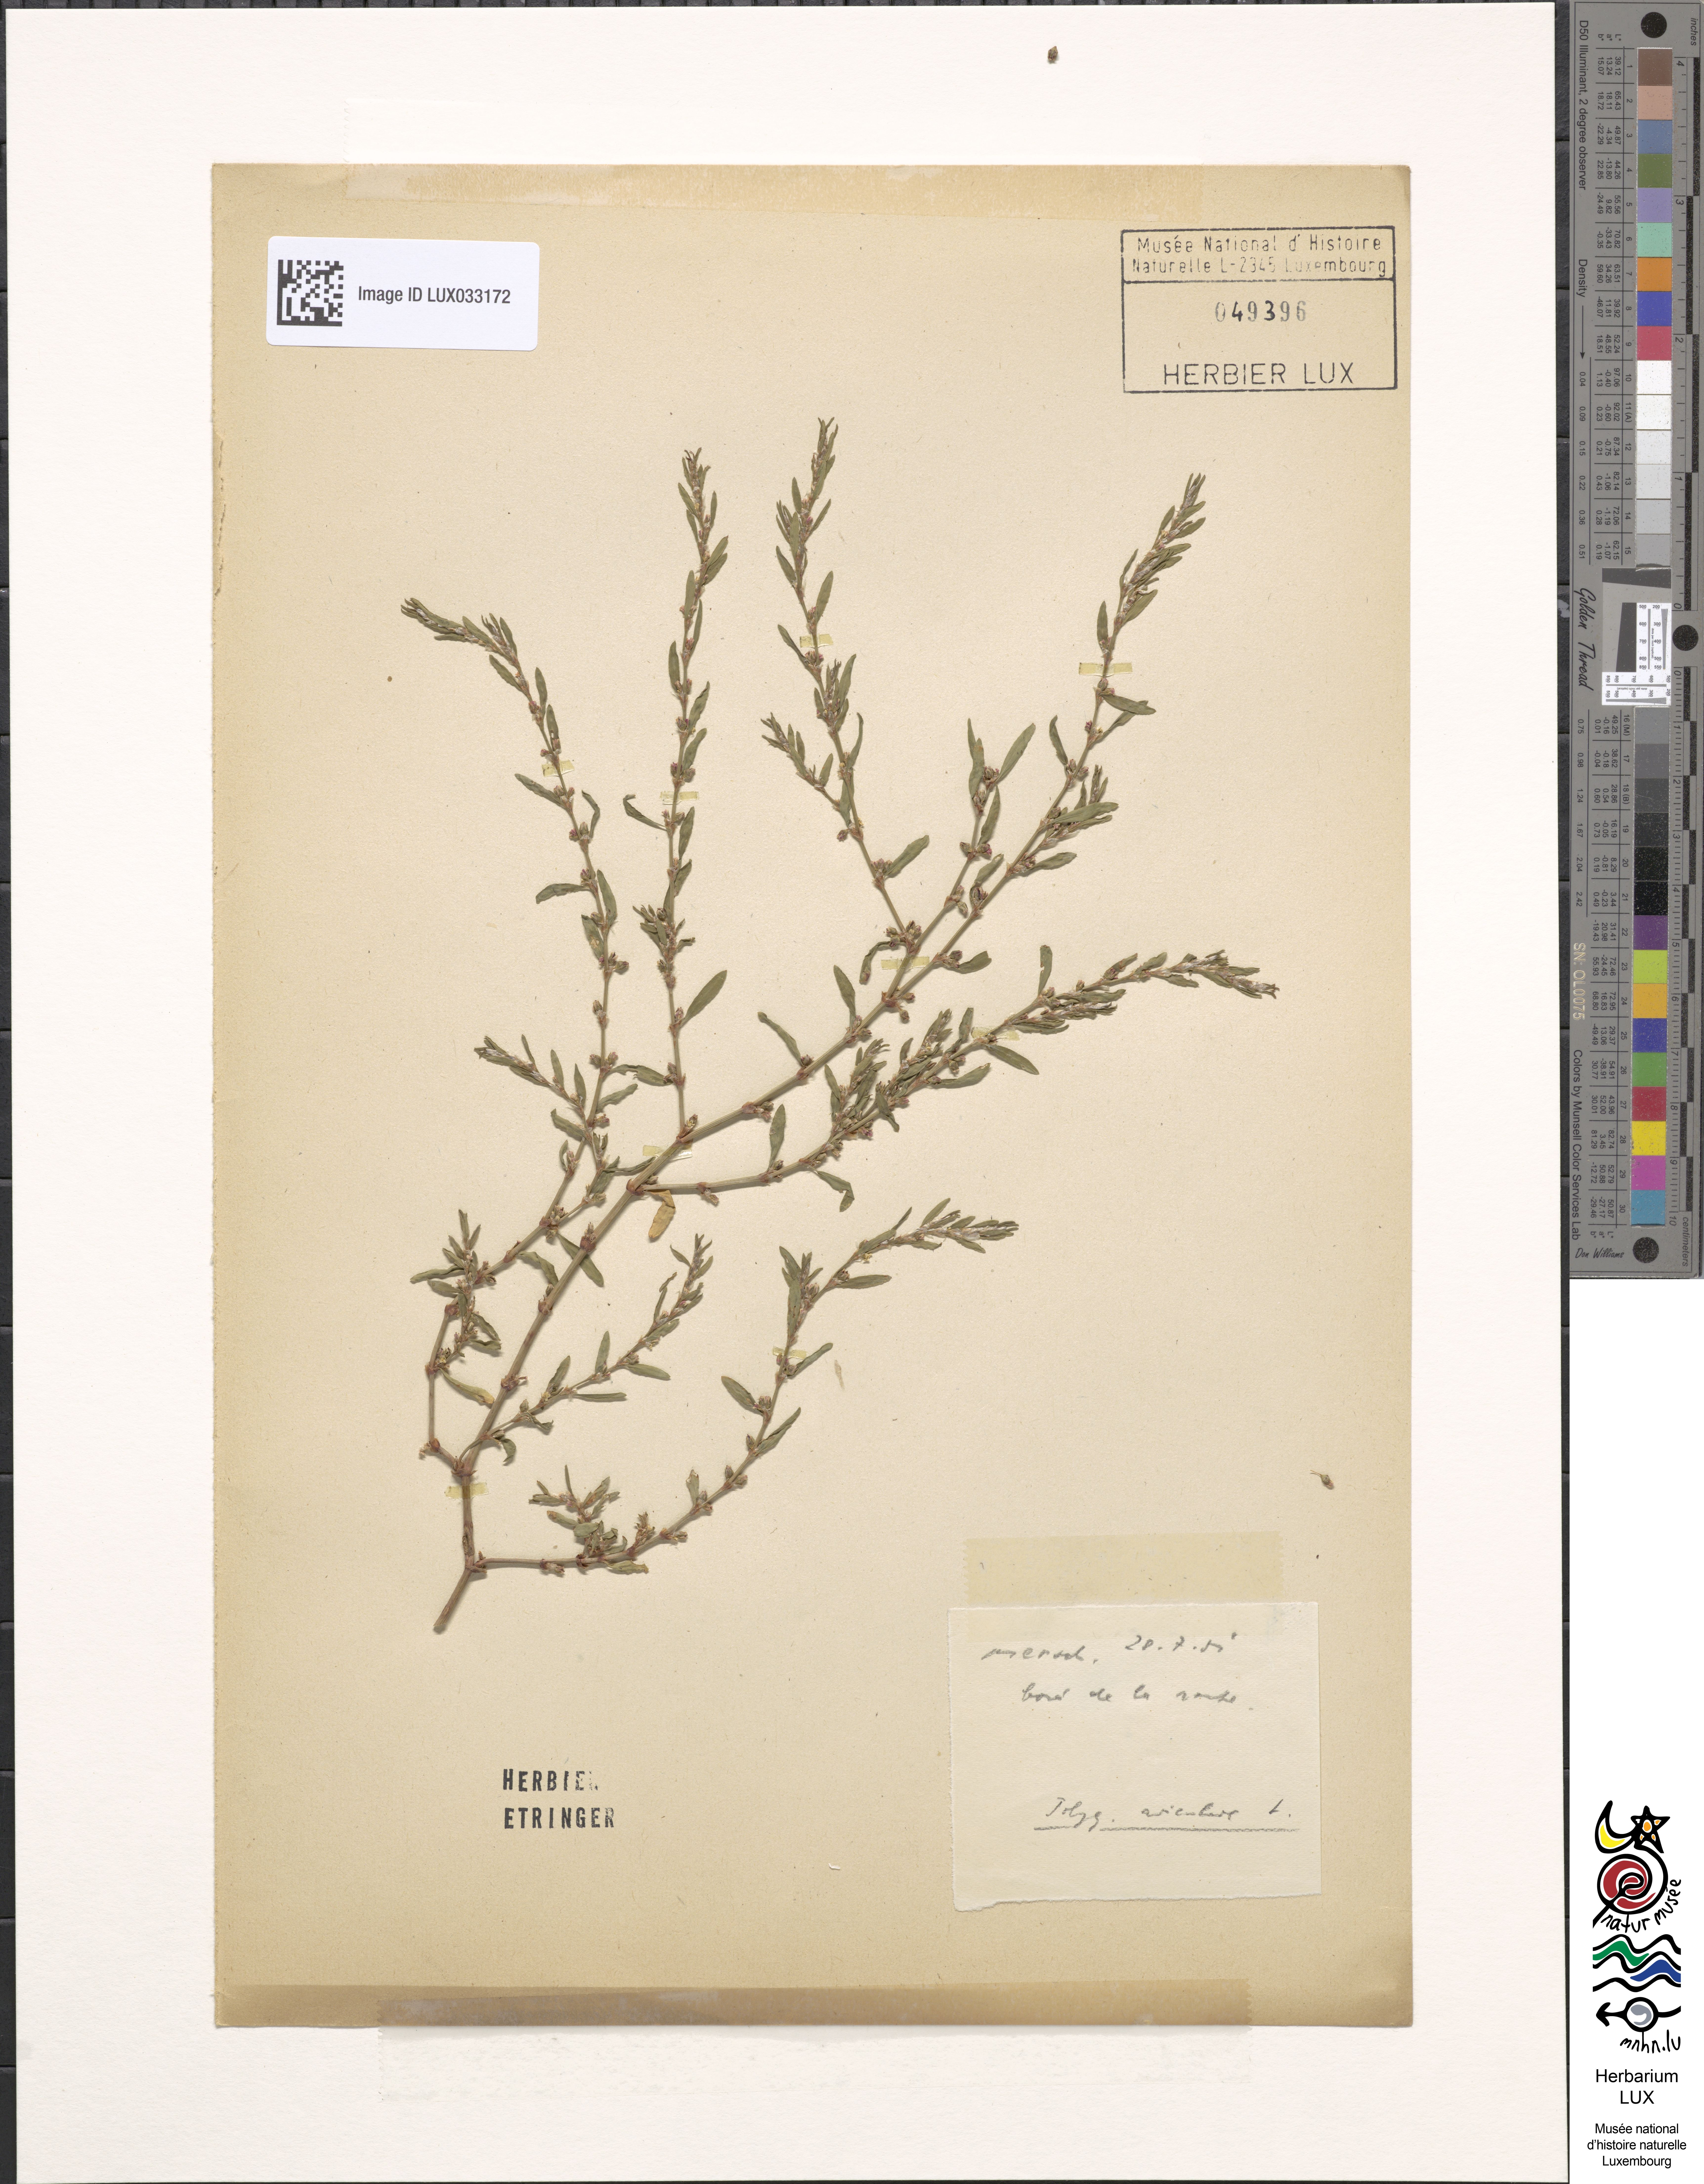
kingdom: Plantae
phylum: Tracheophyta
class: Magnoliopsida
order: Caryophyllales
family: Polygonaceae
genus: Polygonum
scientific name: Polygonum aviculare
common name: Prostrate knotweed
